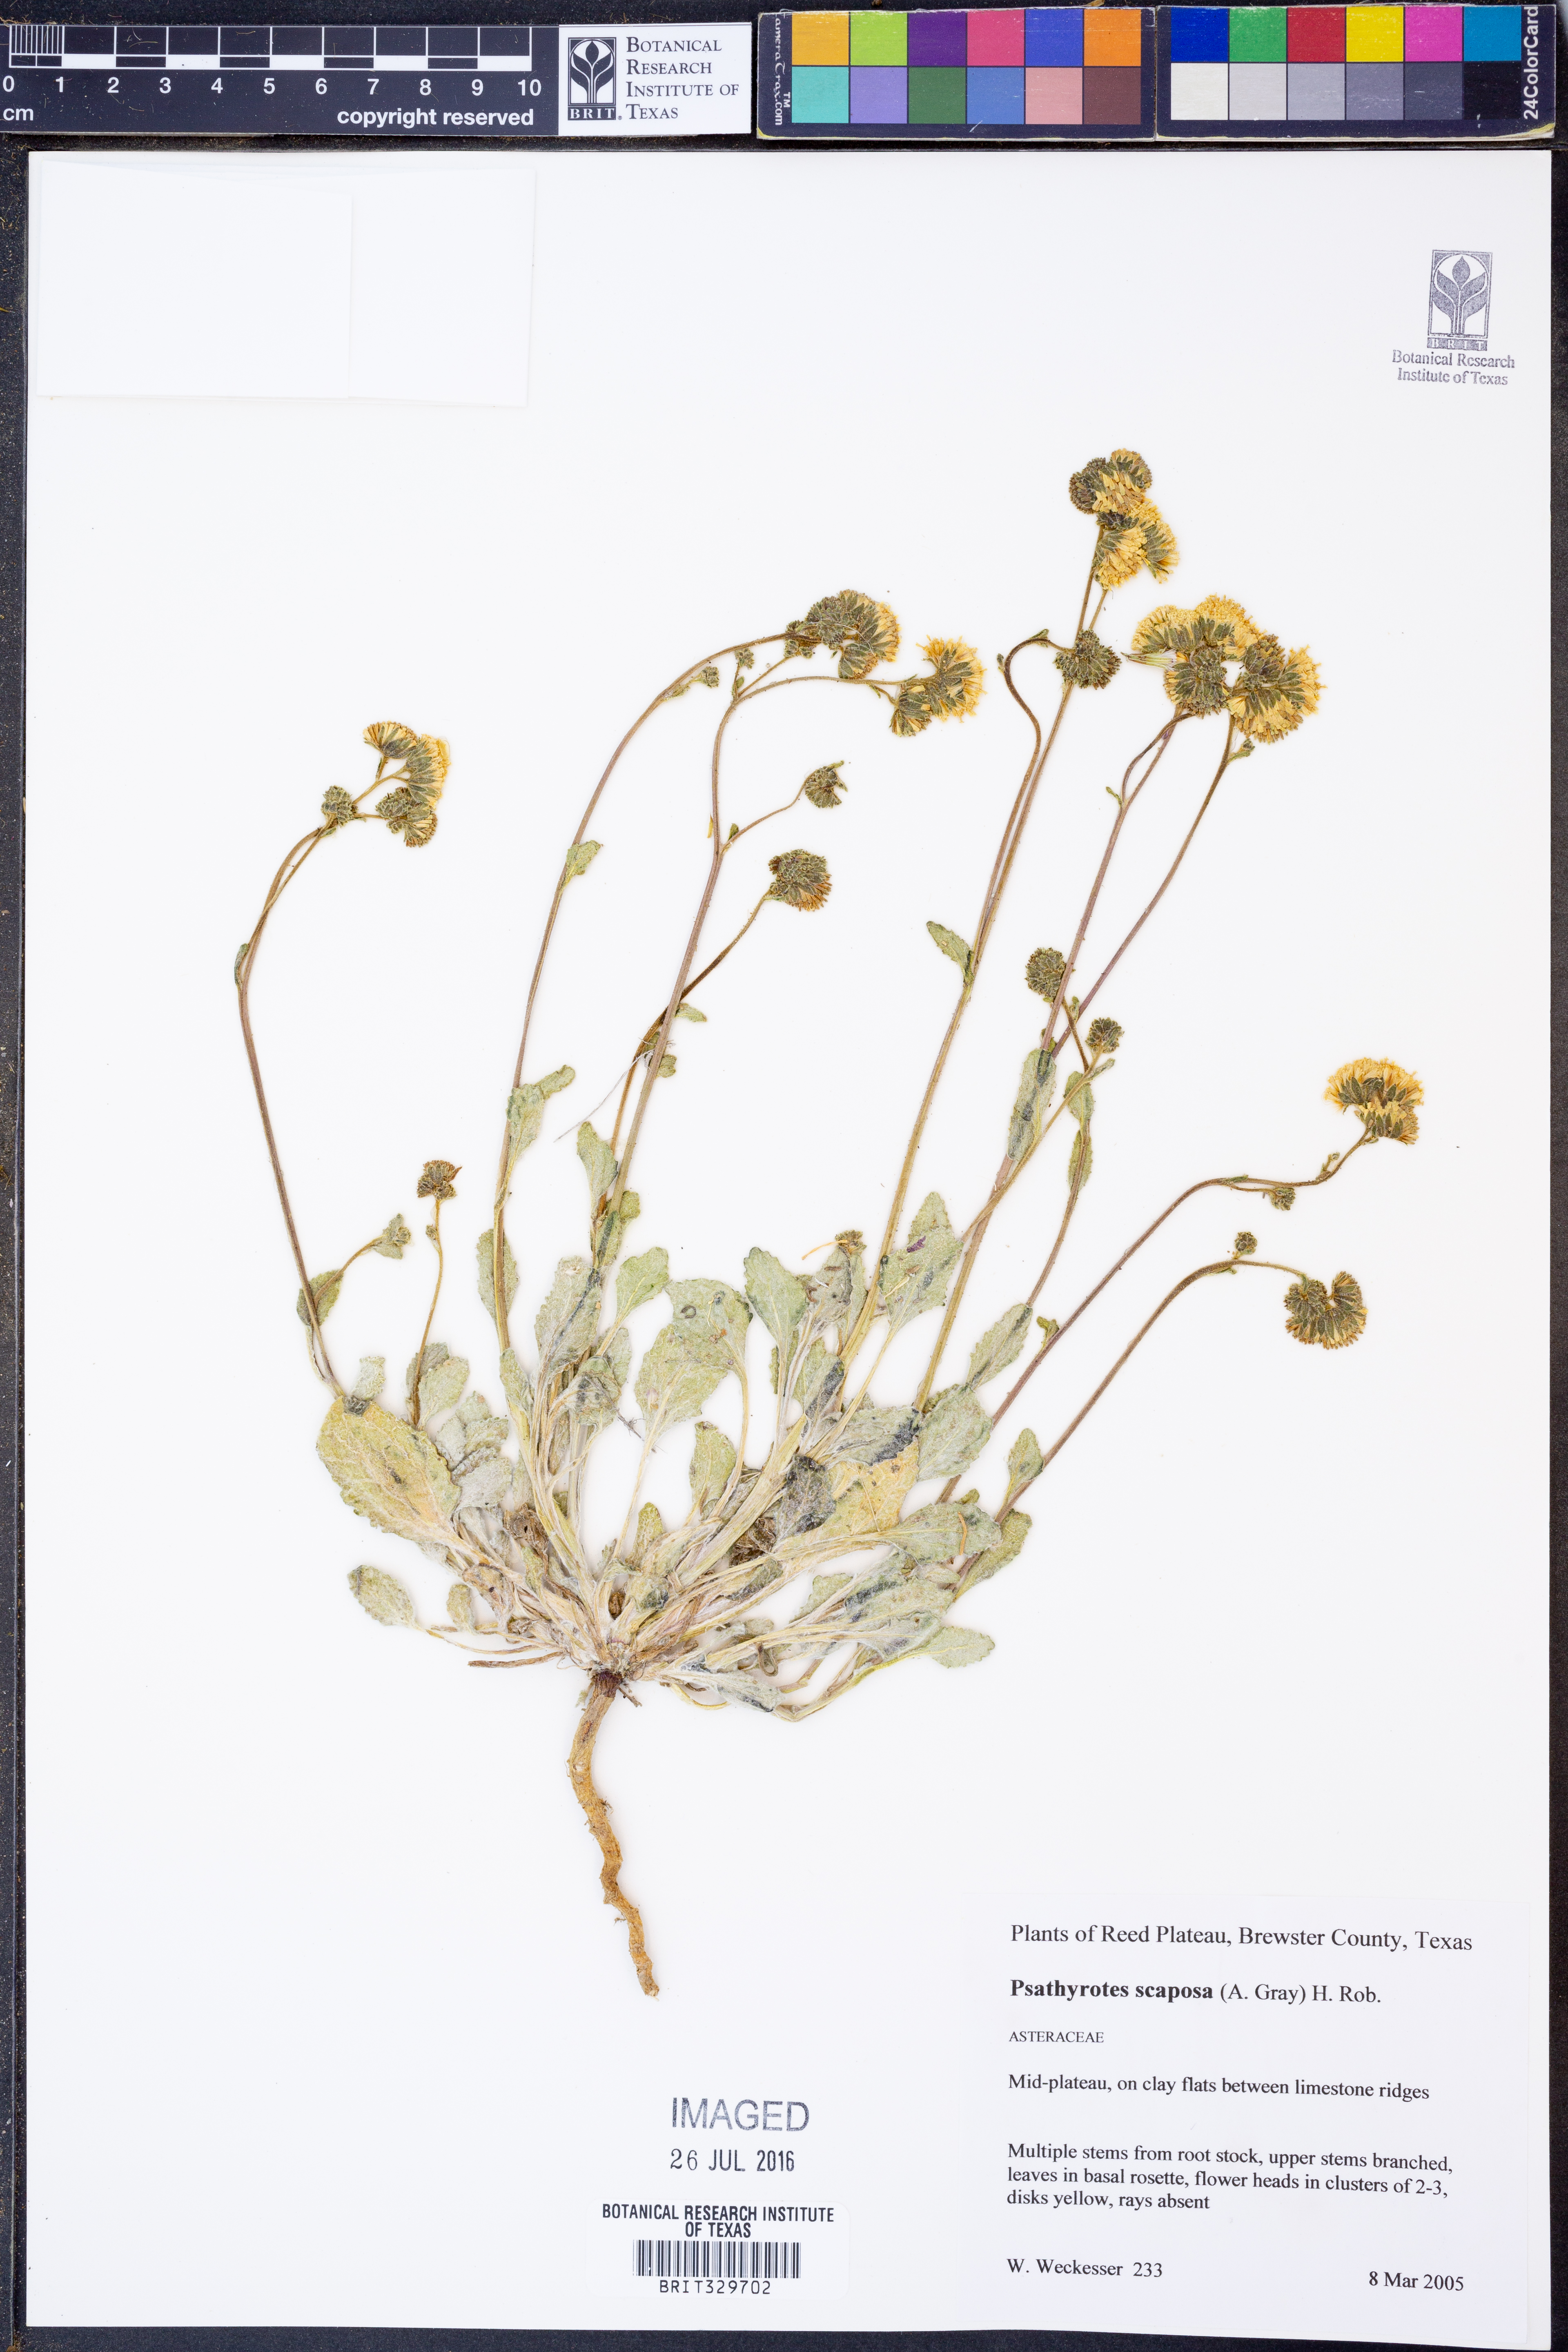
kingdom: Plantae
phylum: Tracheophyta
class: Magnoliopsida
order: Asterales
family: Asteraceae
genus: Psathyrotopsis
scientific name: Psathyrotopsis scaposa
